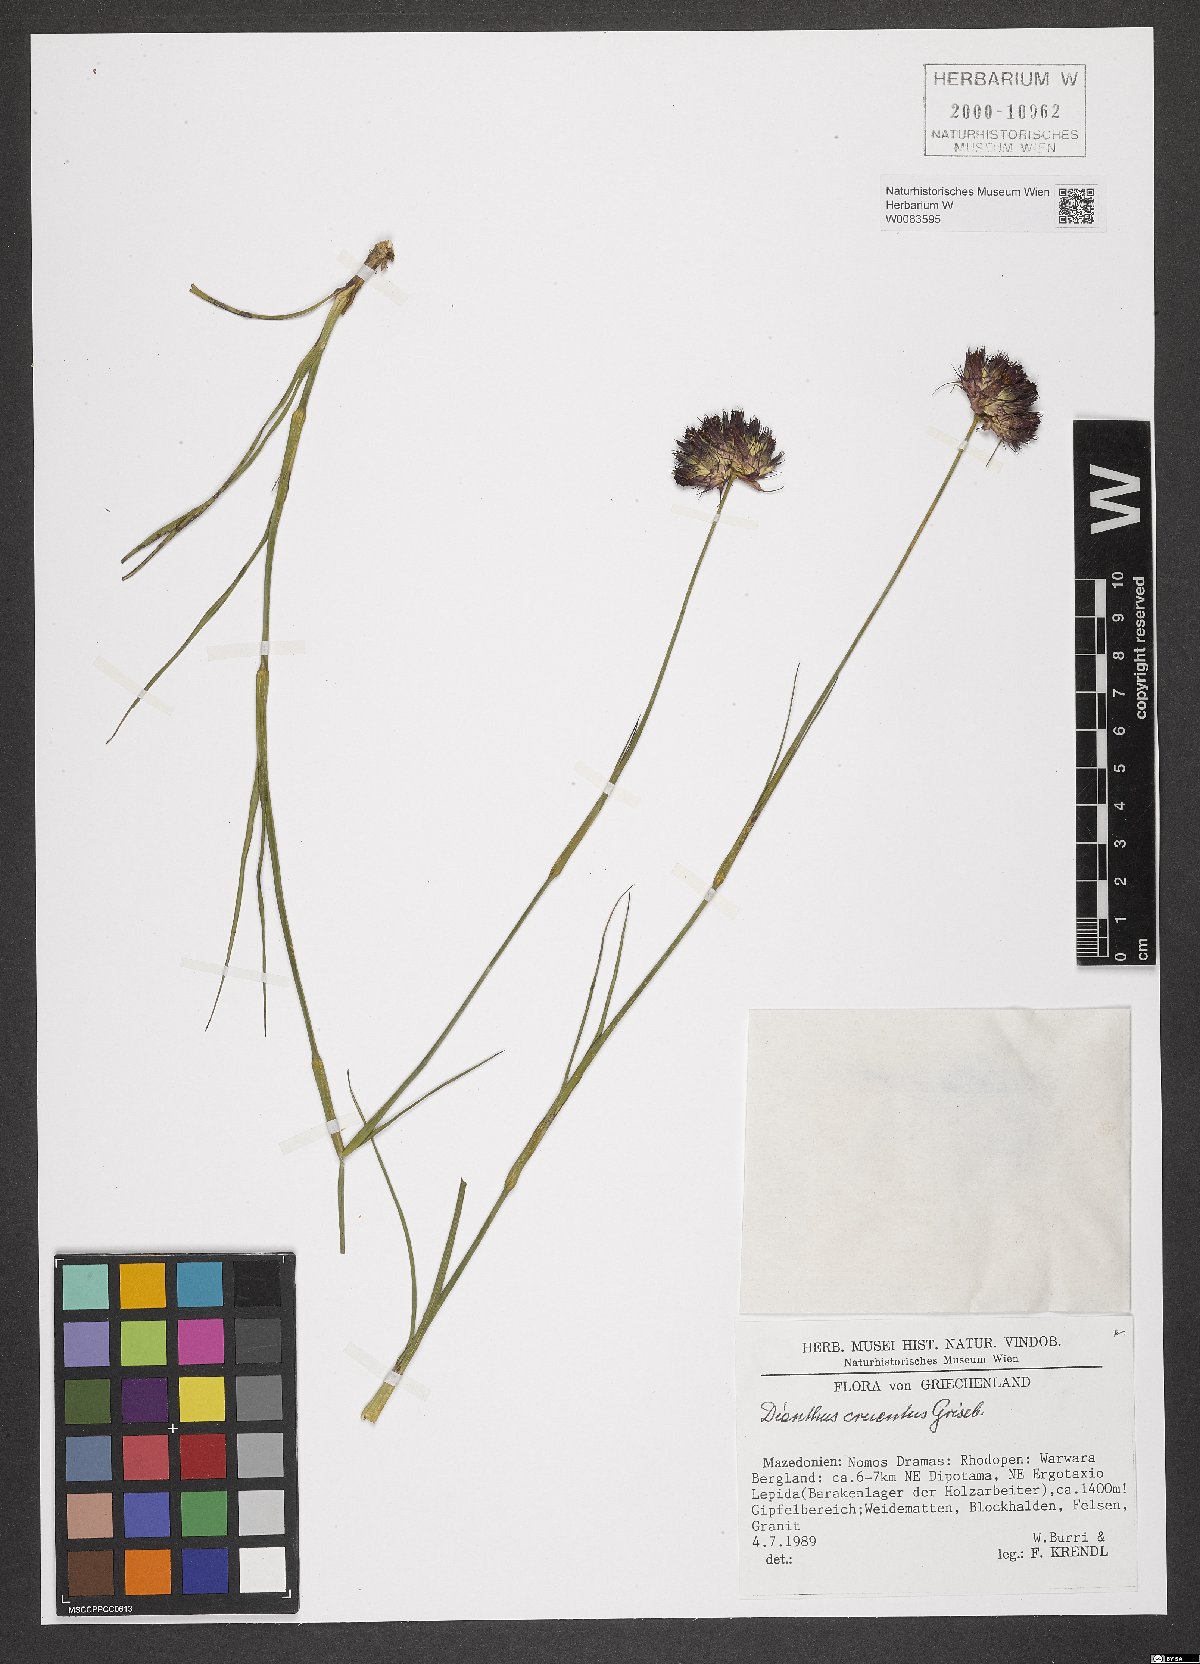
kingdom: Plantae
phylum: Tracheophyta
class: Magnoliopsida
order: Caryophyllales
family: Caryophyllaceae
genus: Dianthus
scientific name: Dianthus cruentus
